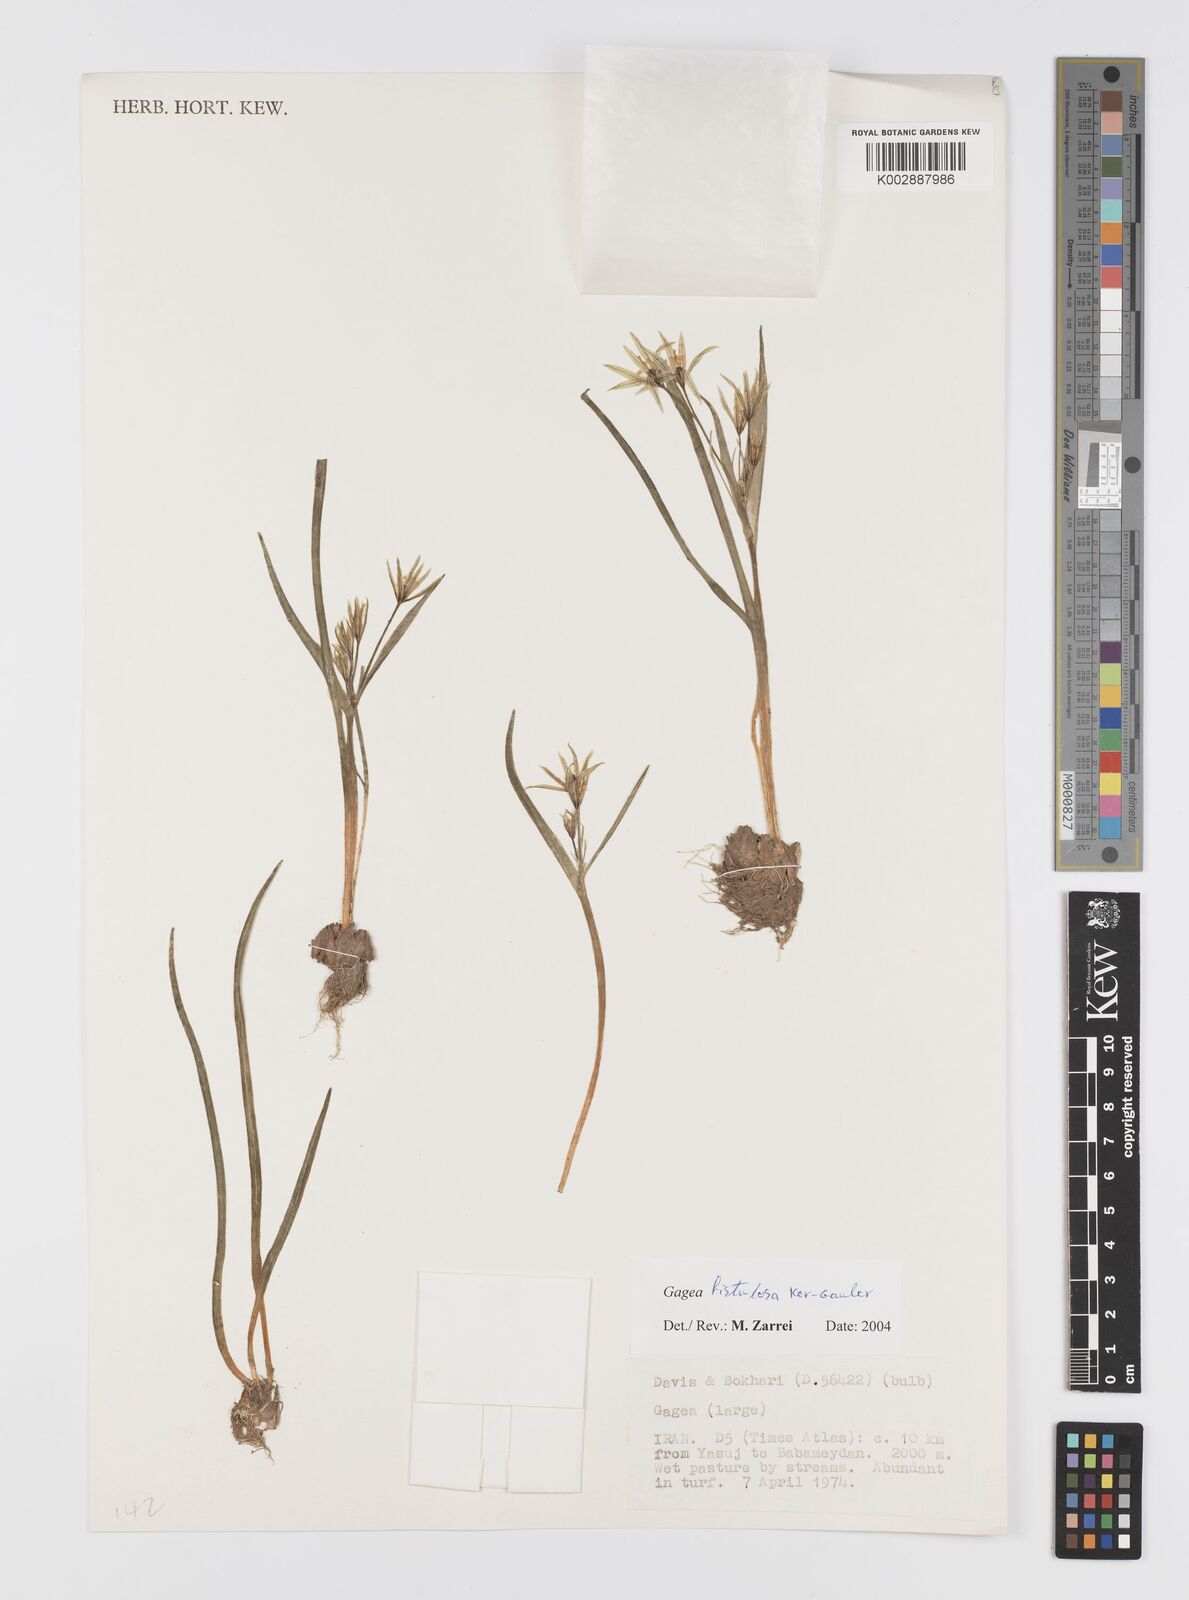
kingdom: Plantae
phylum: Tracheophyta
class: Liliopsida
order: Liliales
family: Liliaceae
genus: Gagea
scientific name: Gagea bohemica
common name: Early star-of-bethlehem
